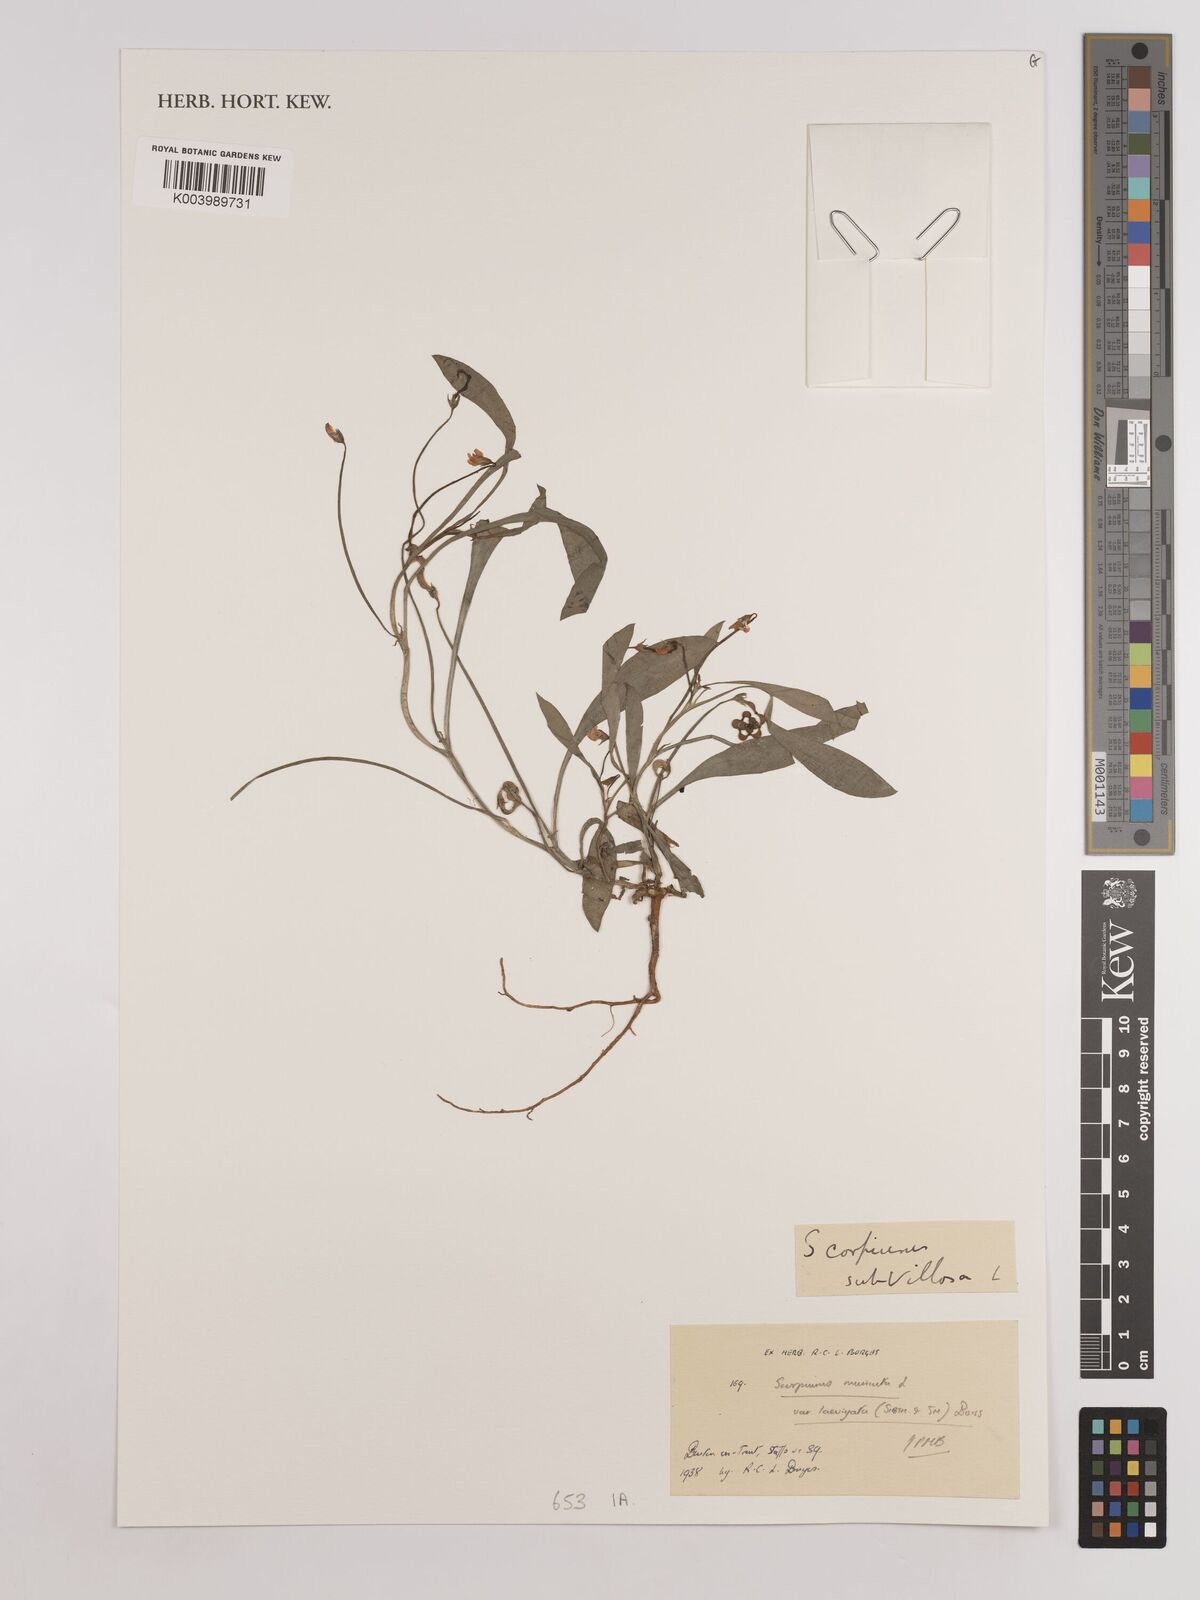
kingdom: Plantae
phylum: Tracheophyta
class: Magnoliopsida
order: Fabales
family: Fabaceae
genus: Scorpiurus
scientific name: Scorpiurus muricatus
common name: Caterpillar-plant
